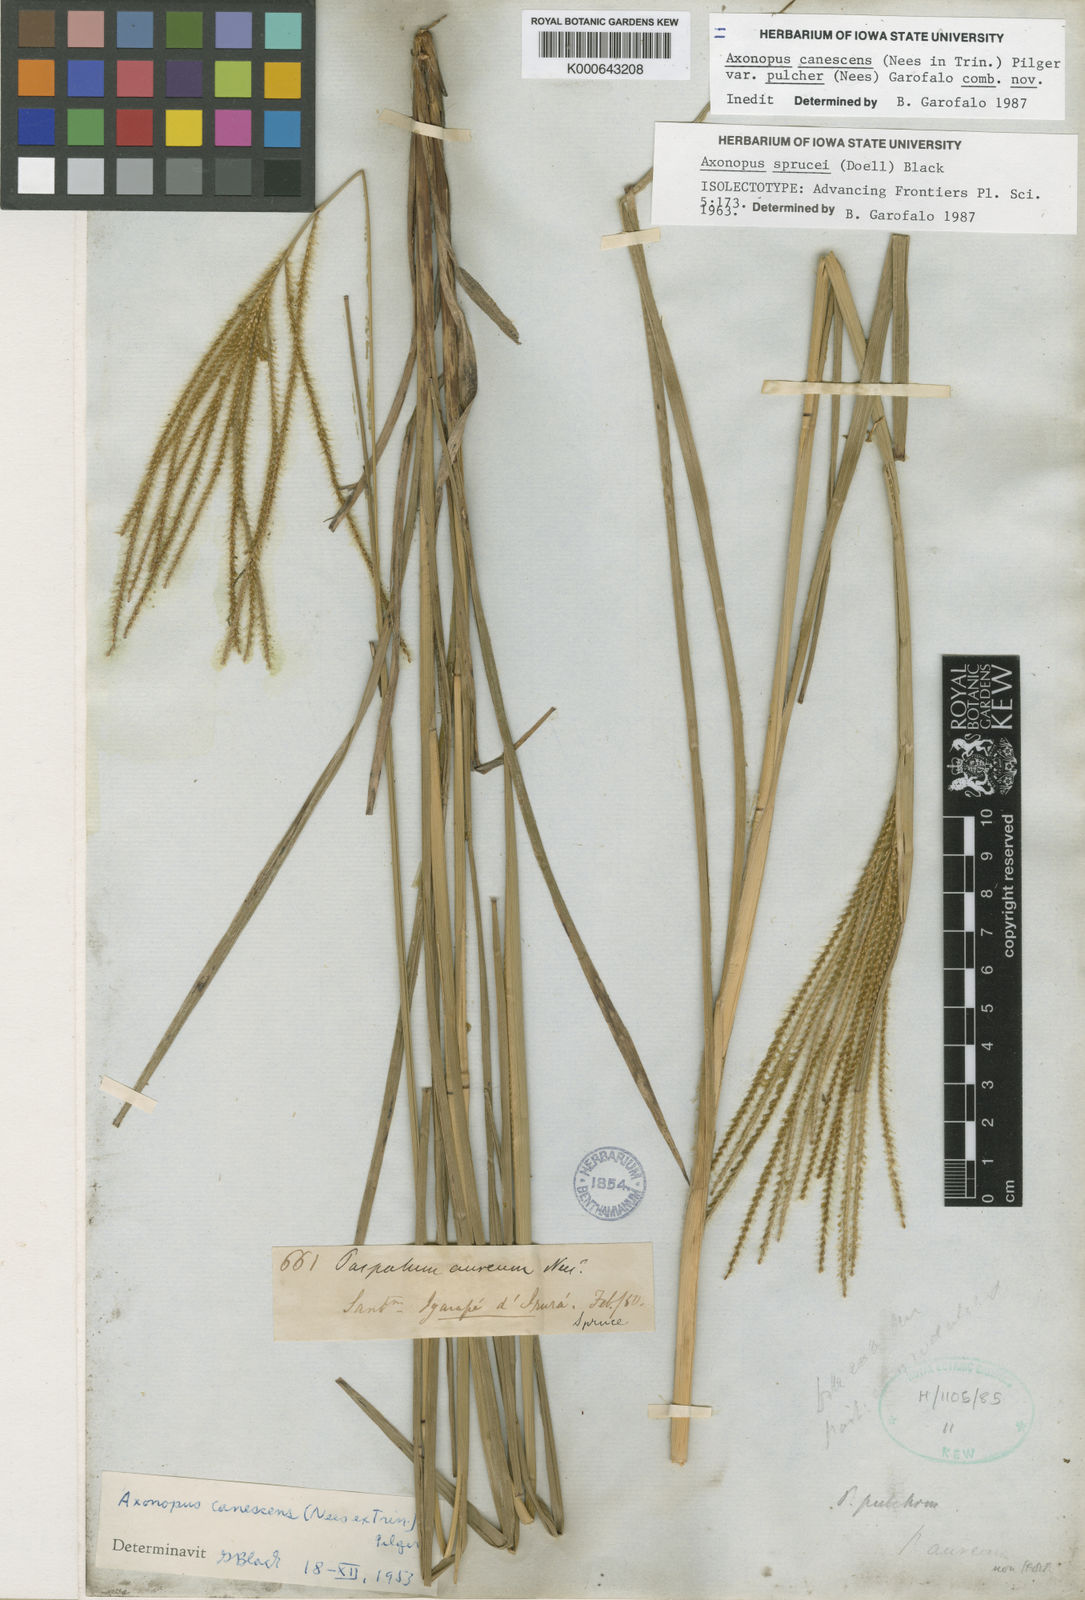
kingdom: Plantae
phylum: Tracheophyta
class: Liliopsida
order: Poales
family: Poaceae
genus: Axonopus
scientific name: Axonopus aureus
